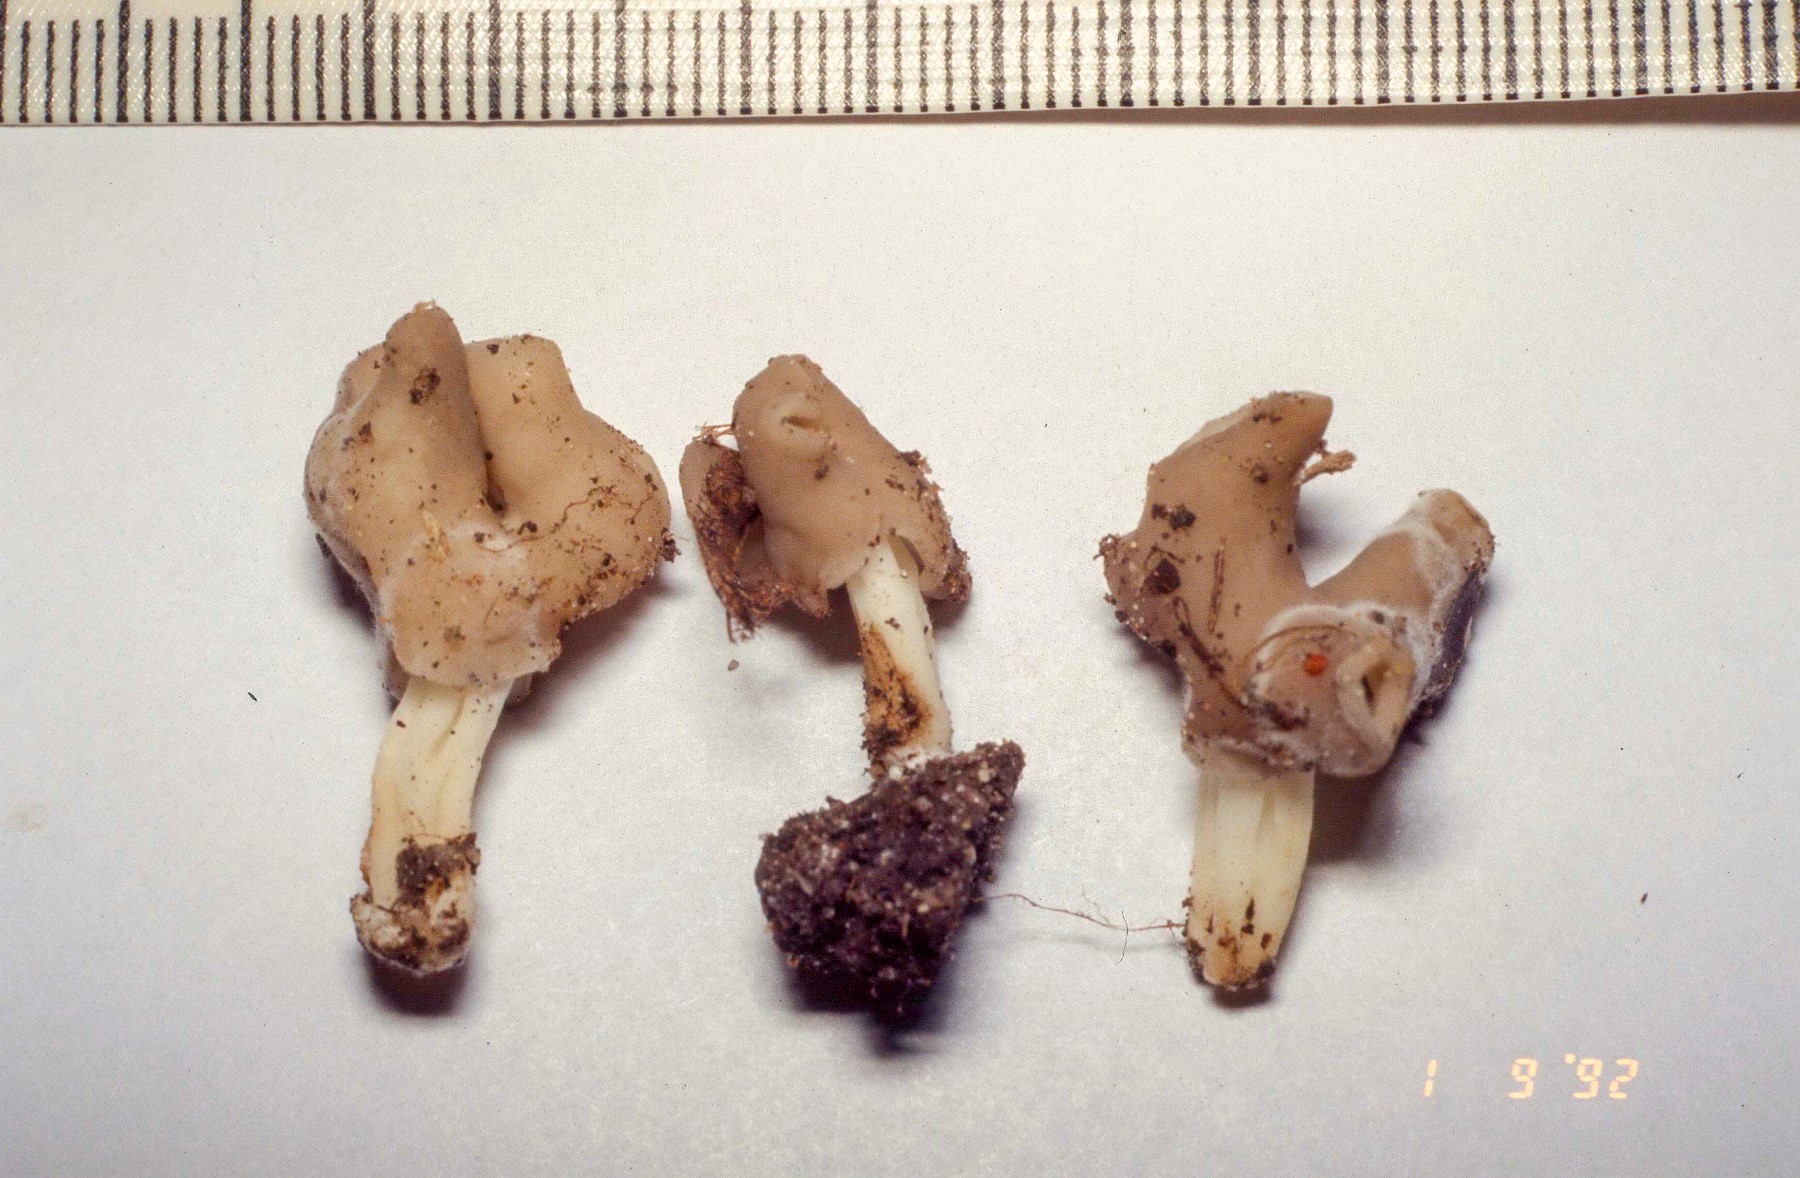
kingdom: Fungi
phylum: Ascomycota
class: Pezizomycetes
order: Pezizales
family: Helvellaceae
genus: Helvella
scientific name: Helvella
